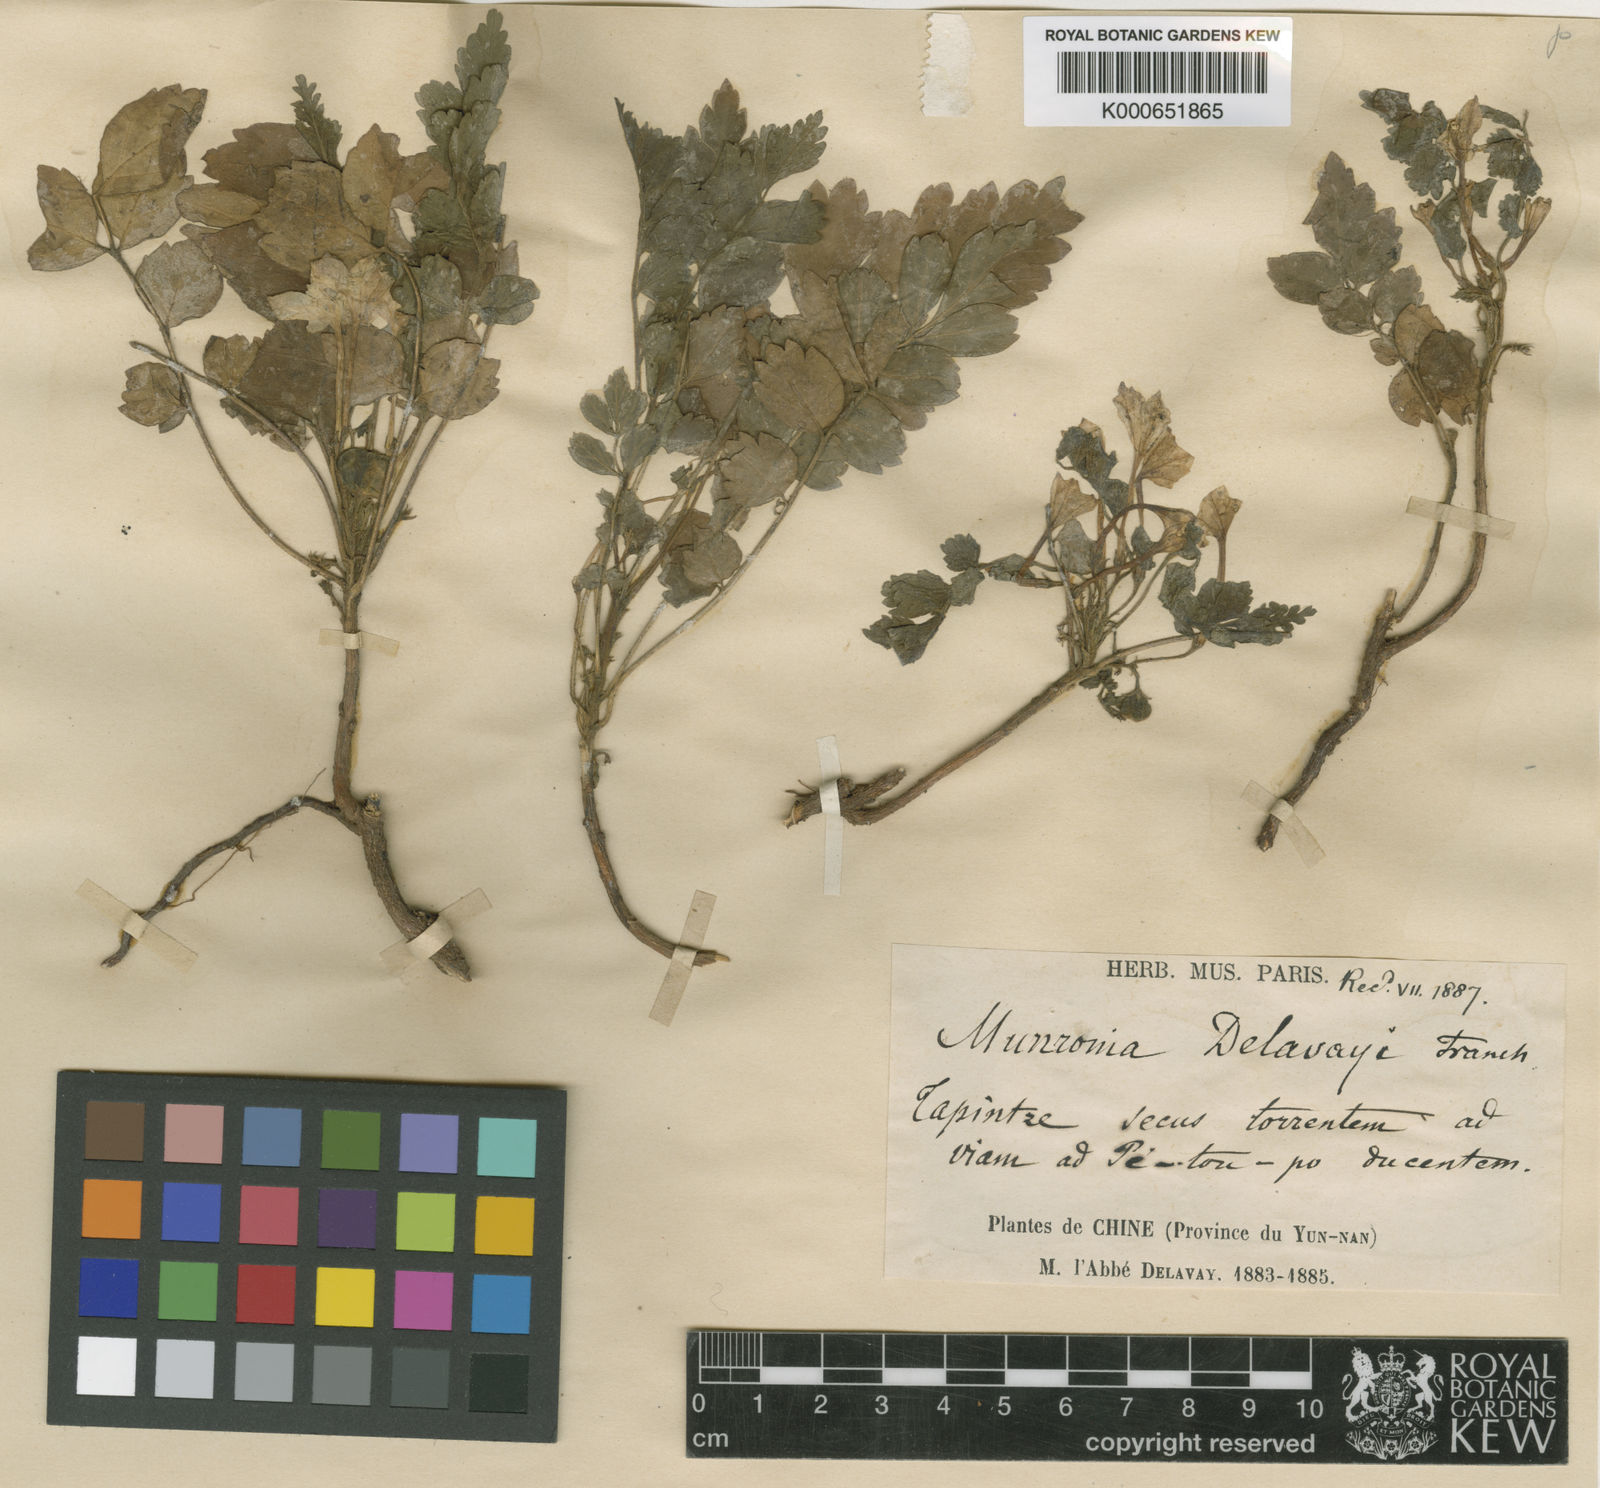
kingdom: Plantae
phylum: Tracheophyta
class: Magnoliopsida
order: Sapindales
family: Meliaceae
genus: Munronia
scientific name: Munronia pinnata
